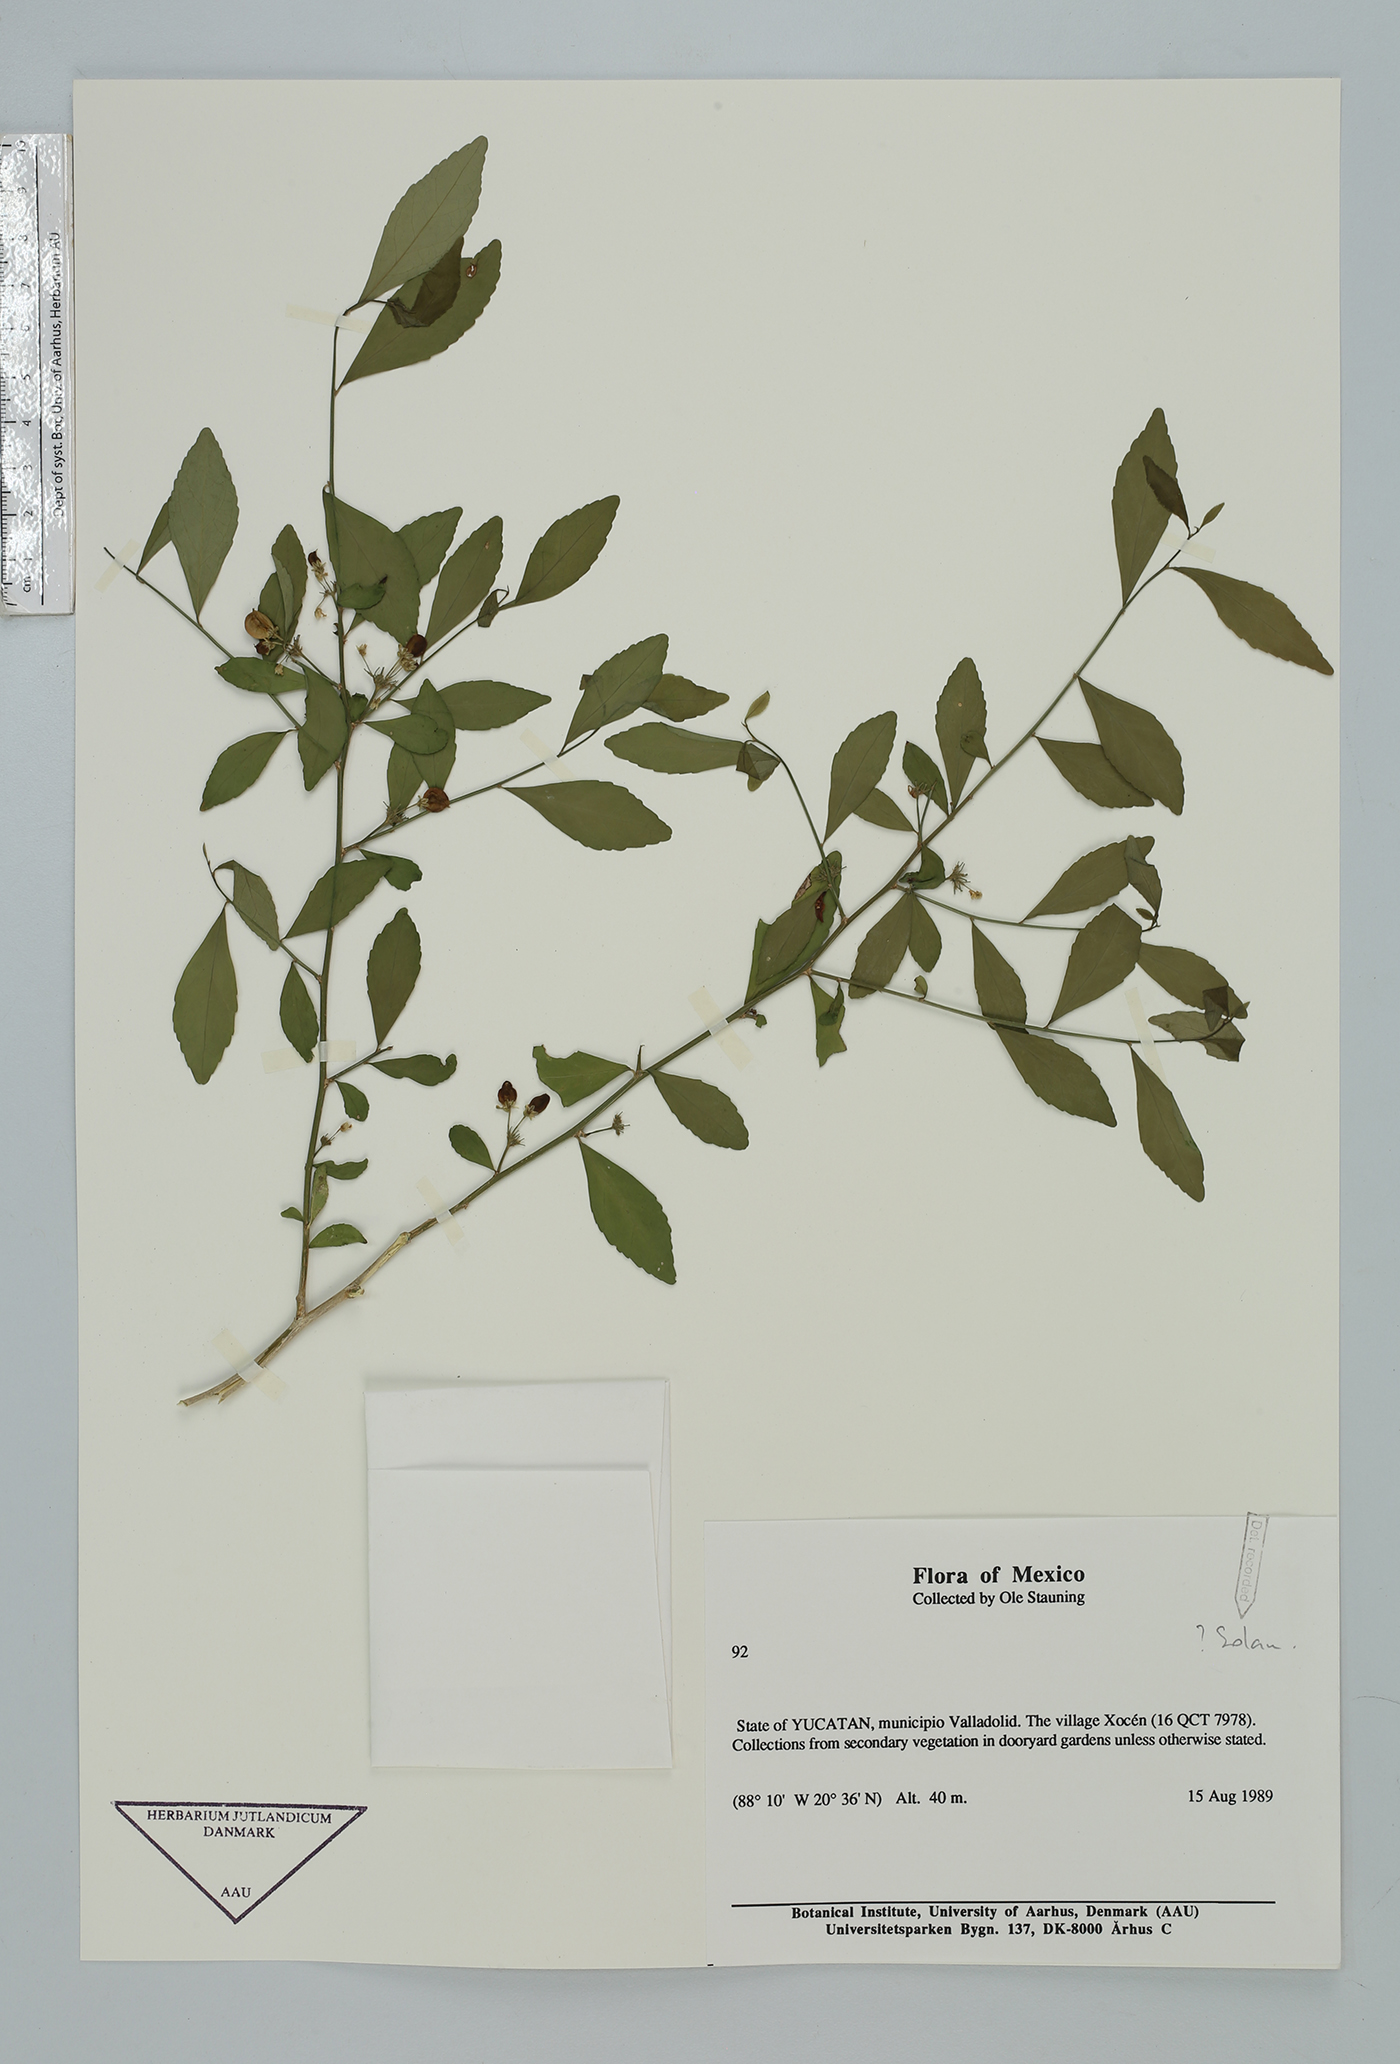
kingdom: Plantae
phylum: Tracheophyta
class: Magnoliopsida
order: Solanales
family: Solanaceae
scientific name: Solanaceae
